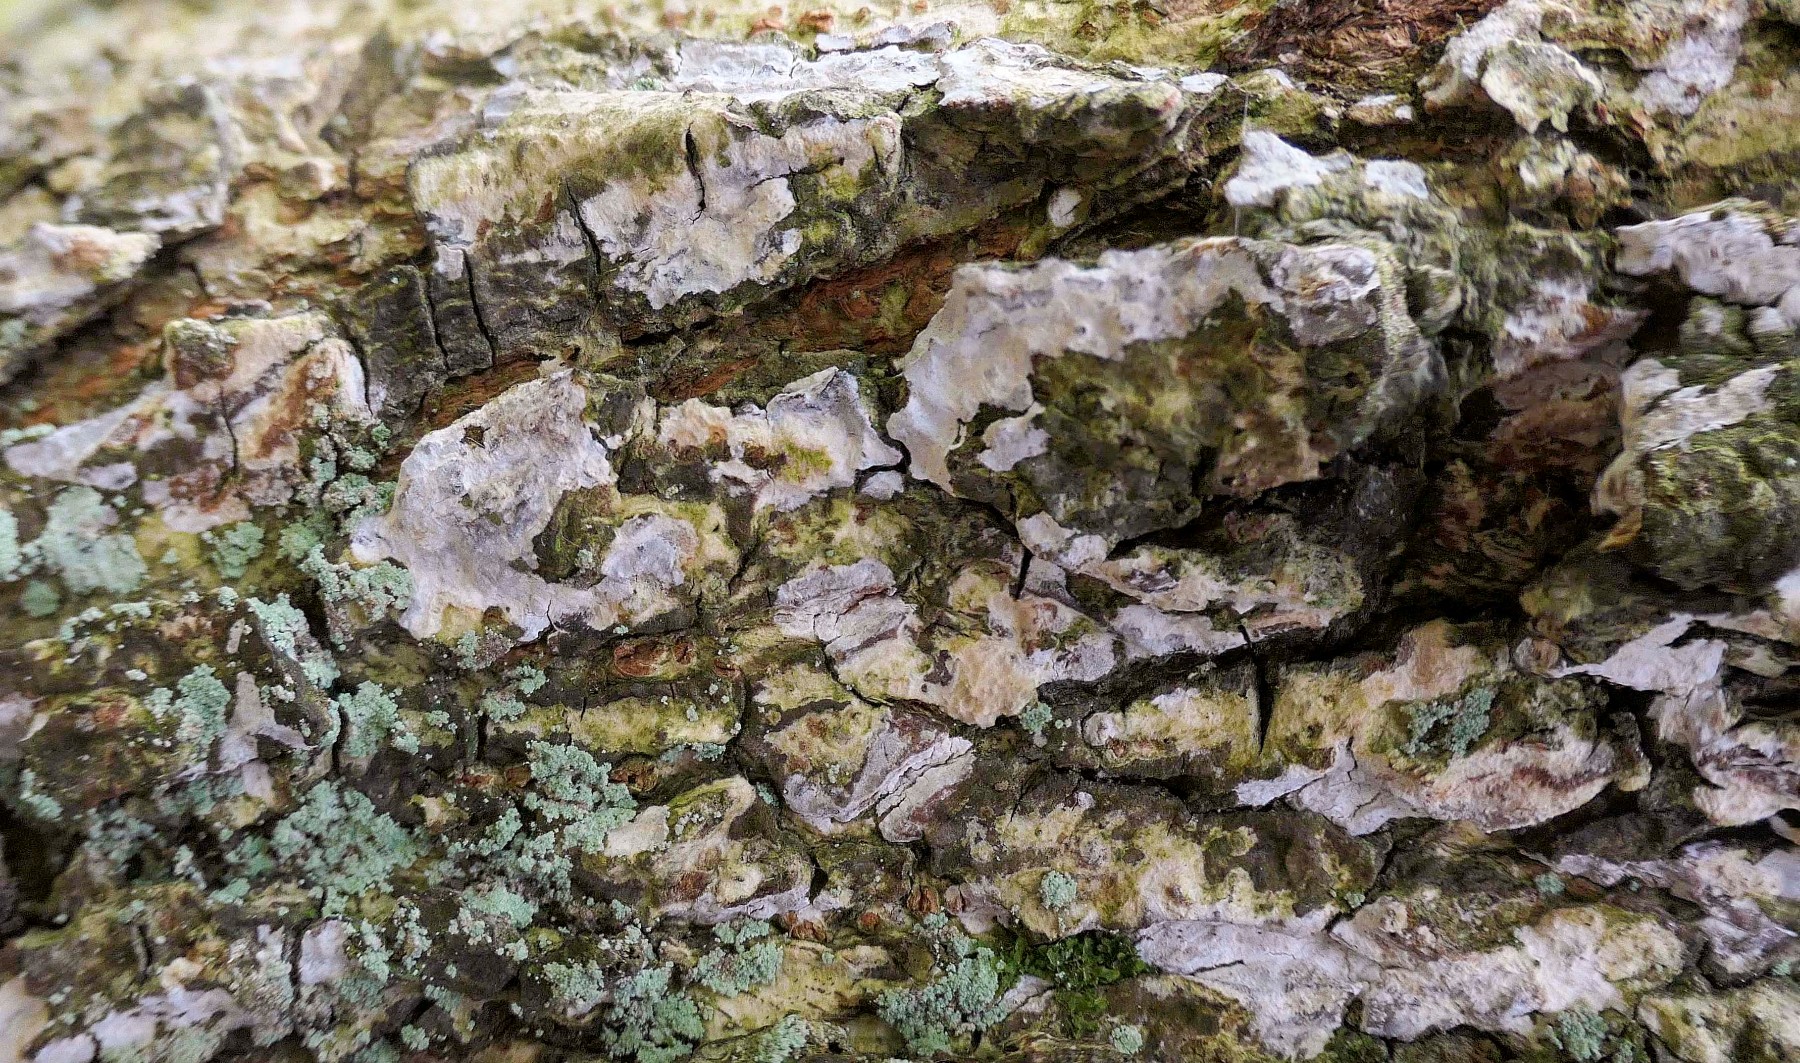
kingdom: Fungi
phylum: Basidiomycota
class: Agaricomycetes
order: Agaricales
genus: Dendrothele
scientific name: Dendrothele acerina
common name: navr-kalkplet
